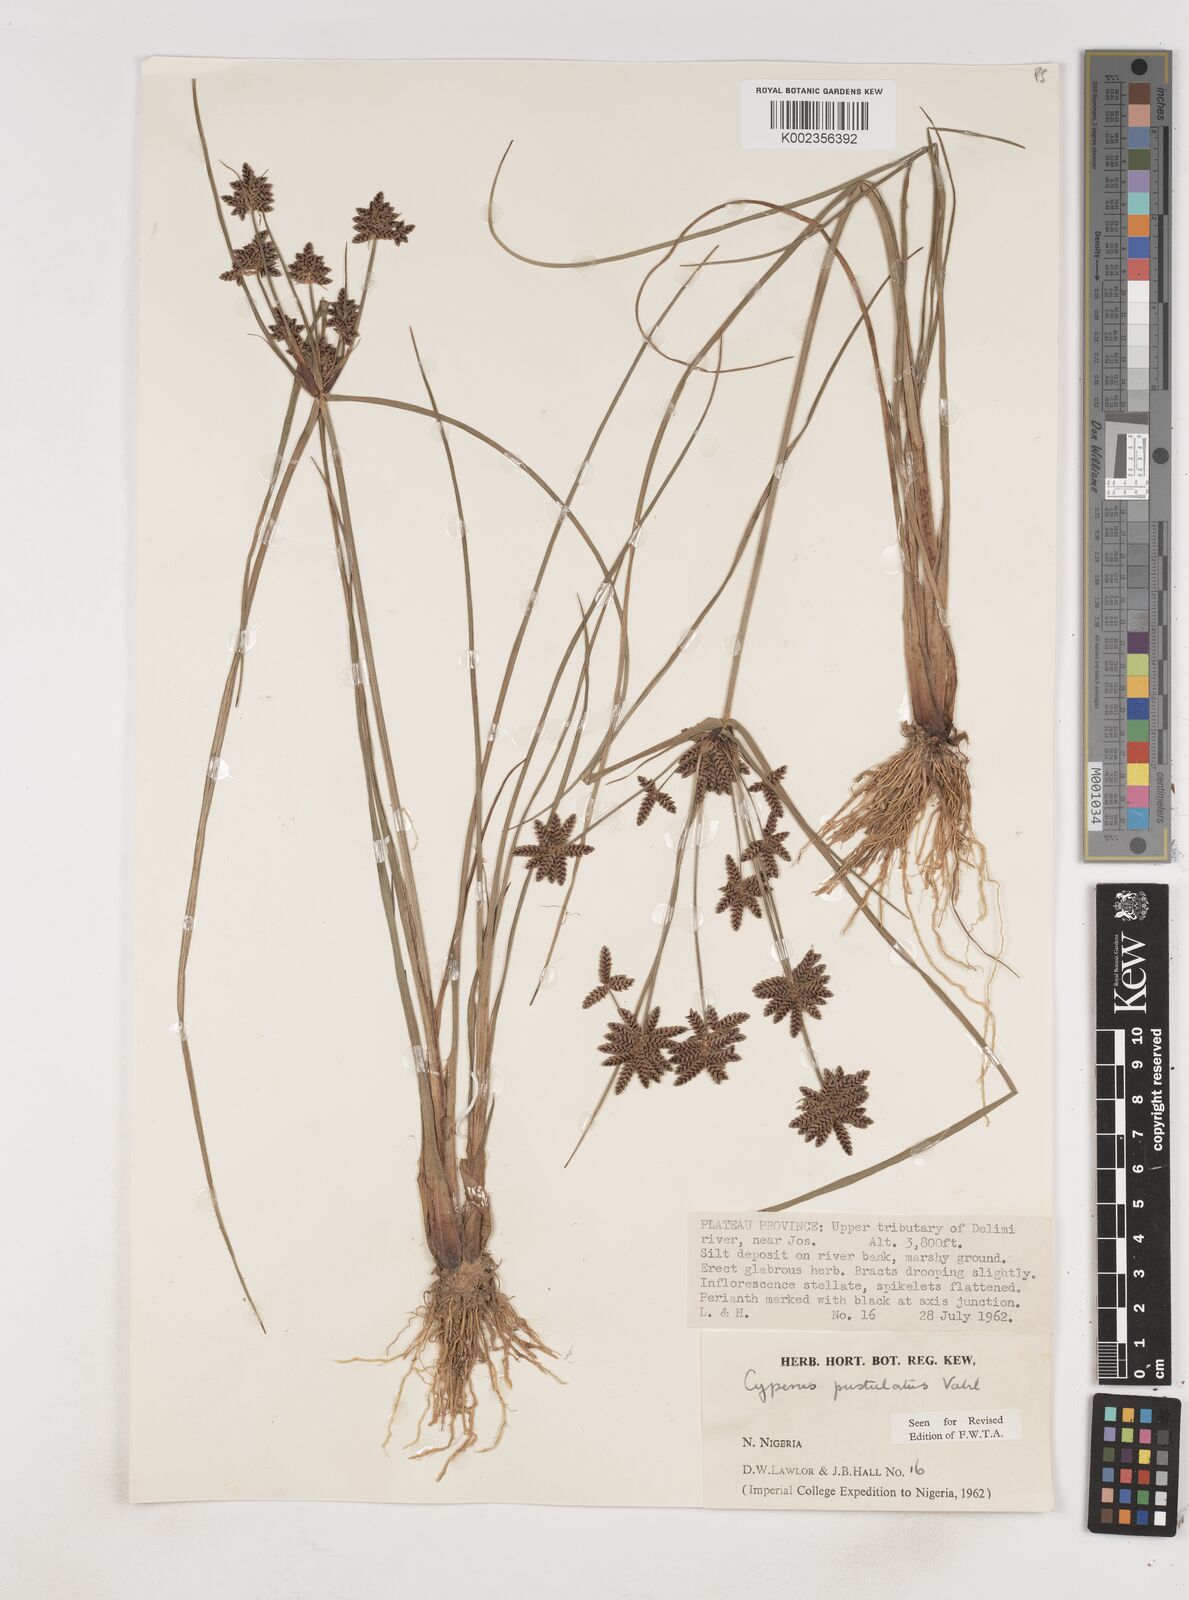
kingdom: Plantae
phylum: Tracheophyta
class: Liliopsida
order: Poales
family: Cyperaceae
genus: Cyperus
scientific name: Cyperus pustulatus
